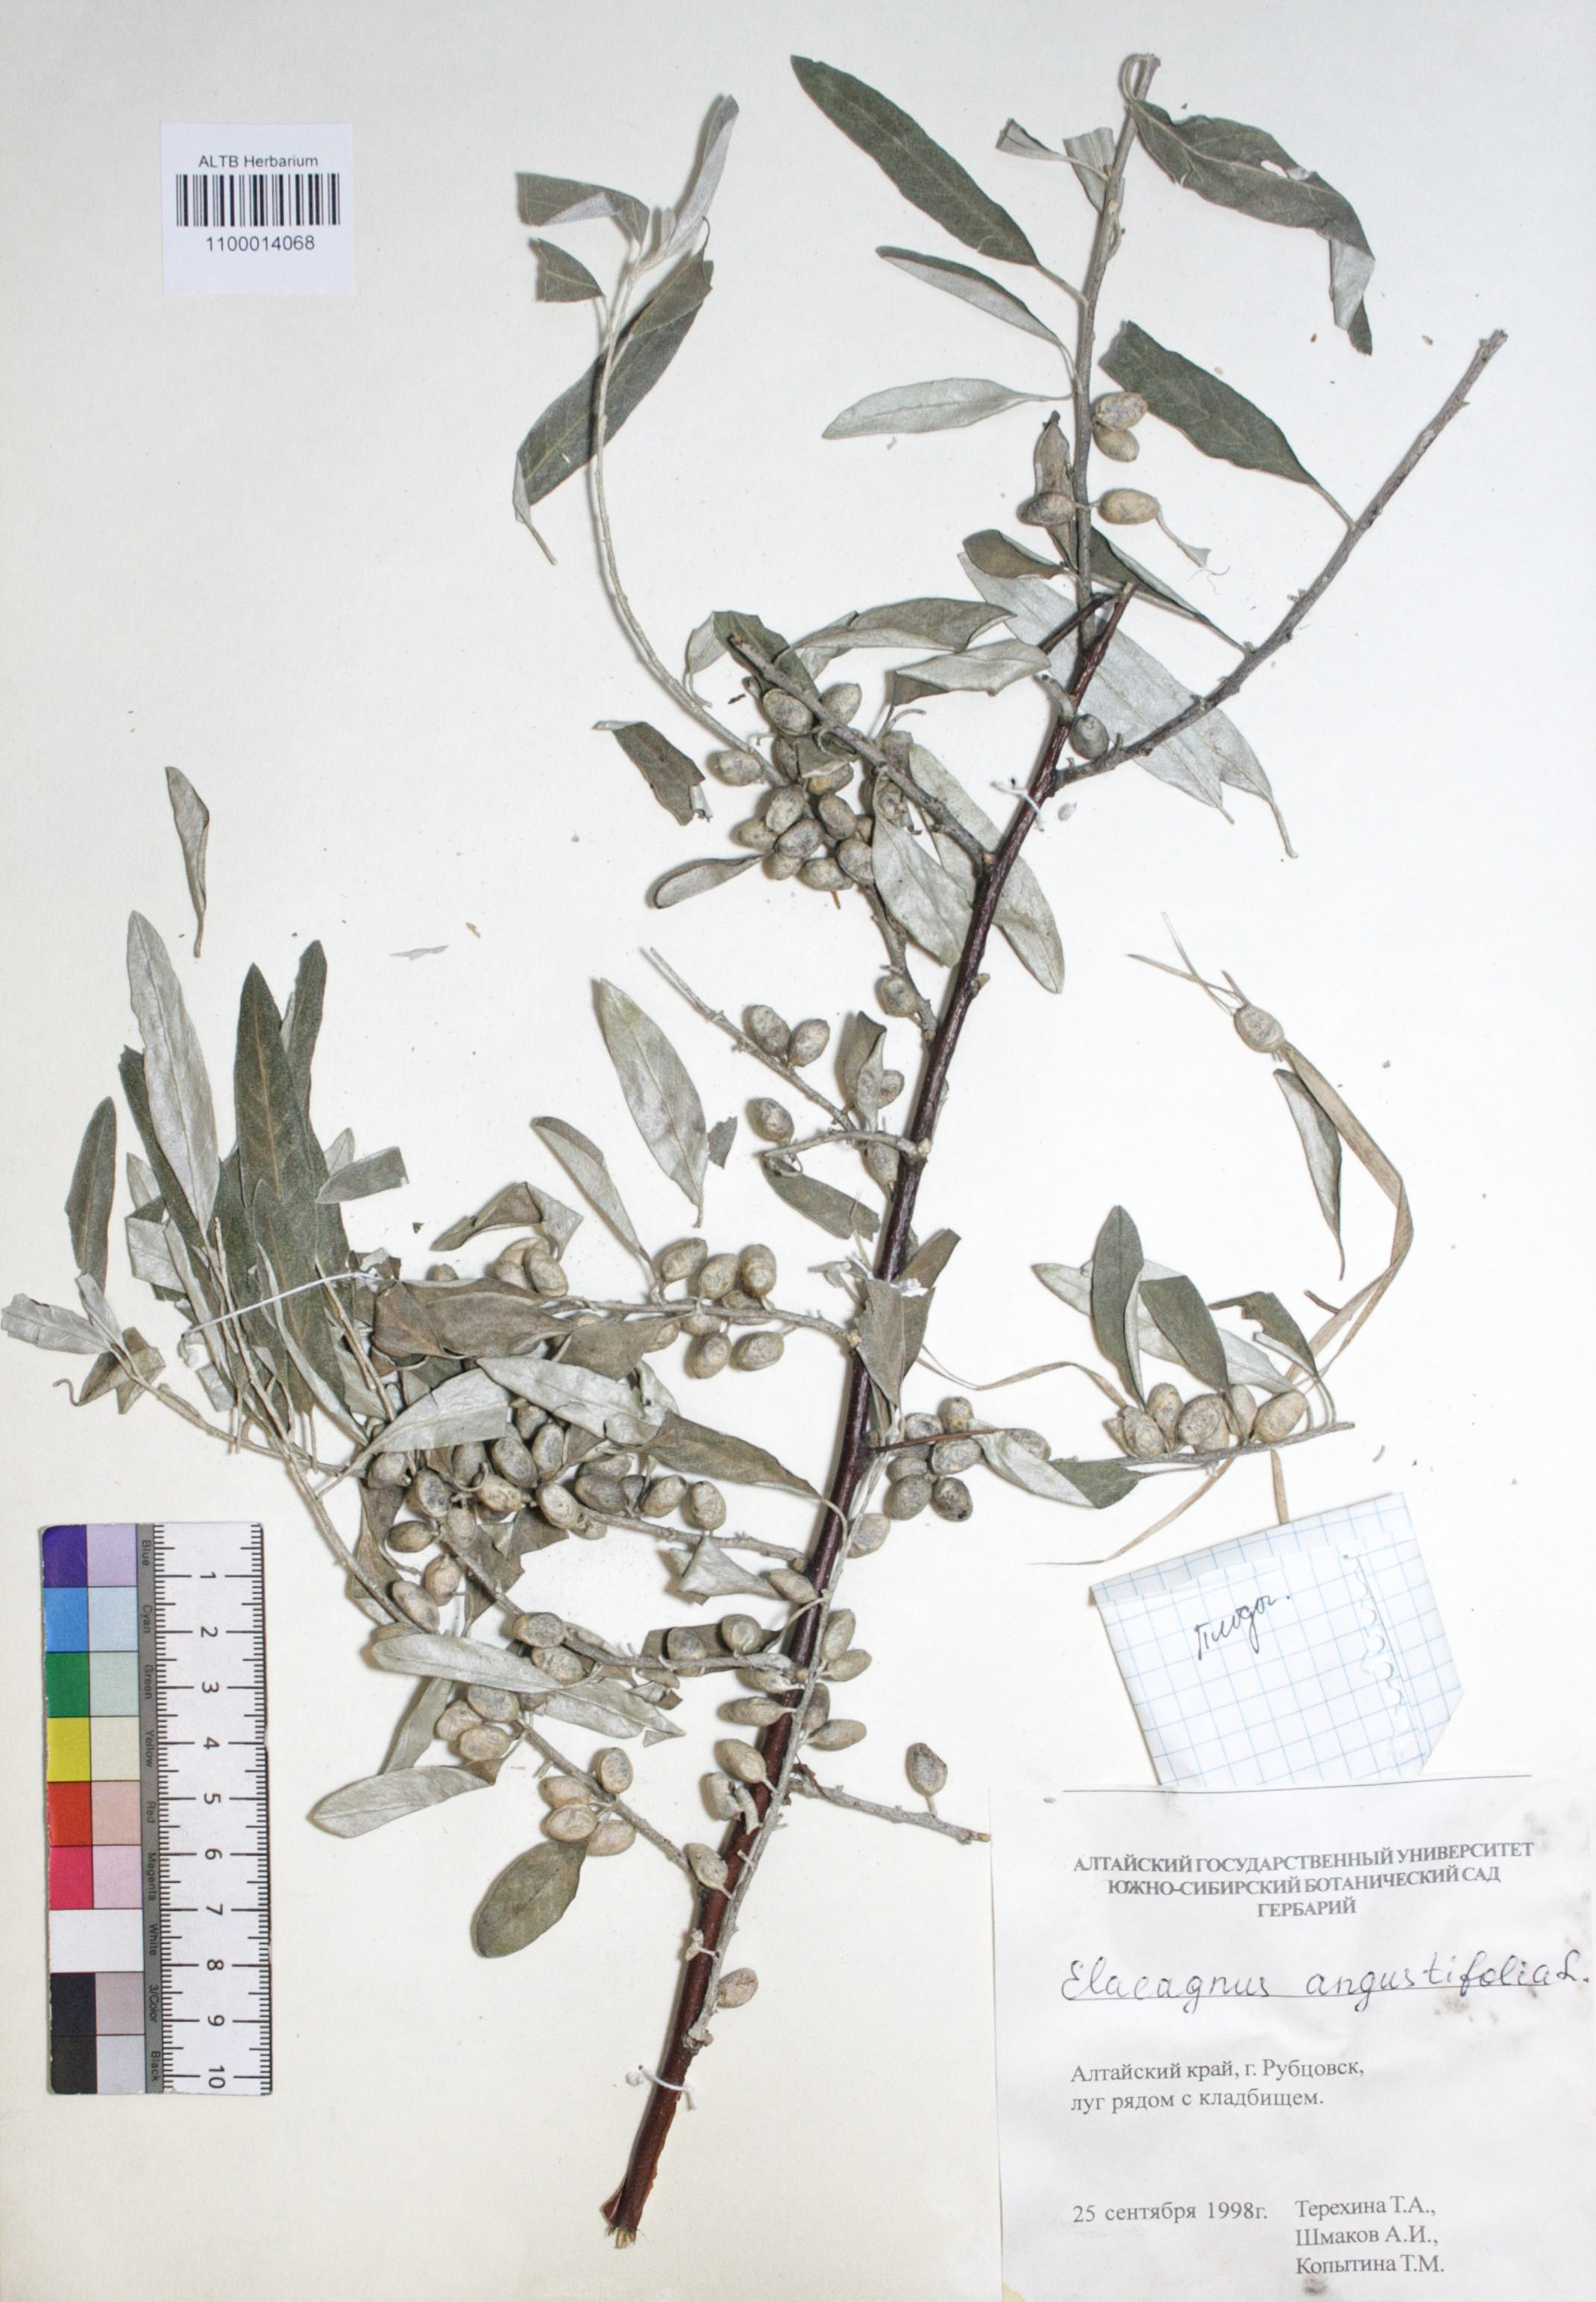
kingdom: Plantae
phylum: Tracheophyta
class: Magnoliopsida
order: Rosales
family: Elaeagnaceae
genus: Elaeagnus
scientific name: Elaeagnus angustifolia
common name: Russian olive
